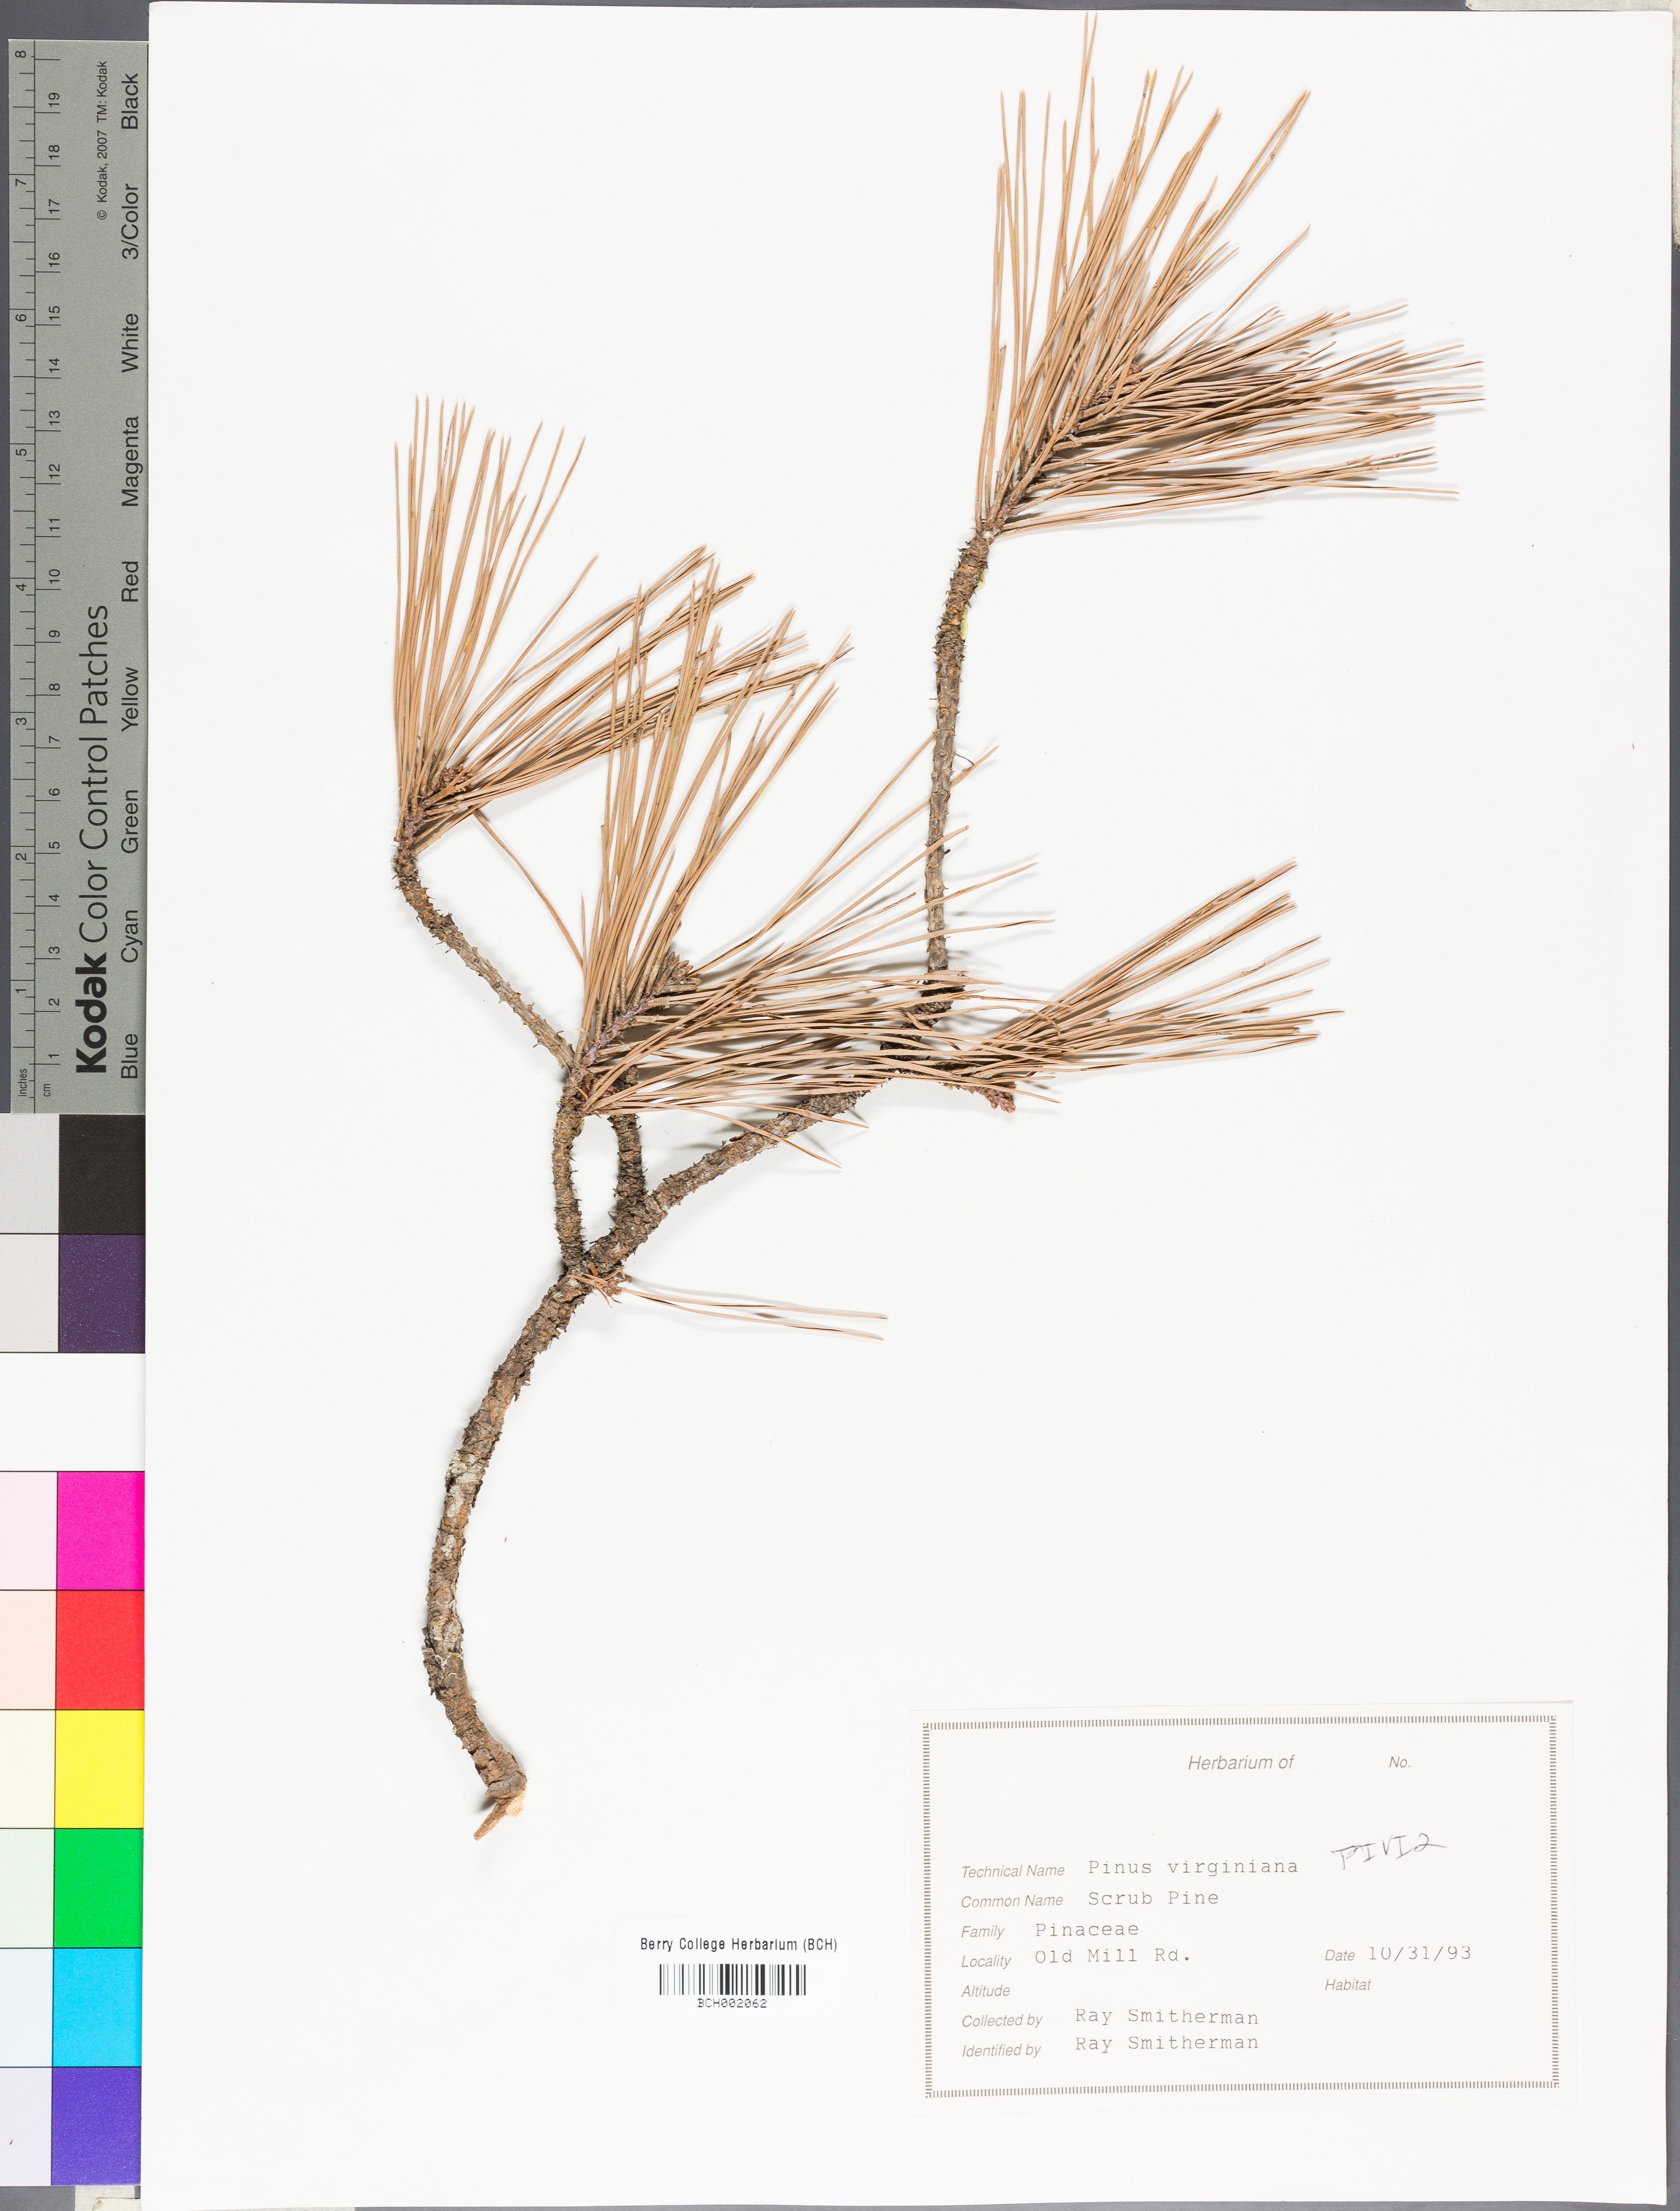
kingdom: Plantae
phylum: Tracheophyta
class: Pinopsida
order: Pinales
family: Pinaceae
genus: Pinus
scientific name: Pinus virginiana
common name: Scrub pine
